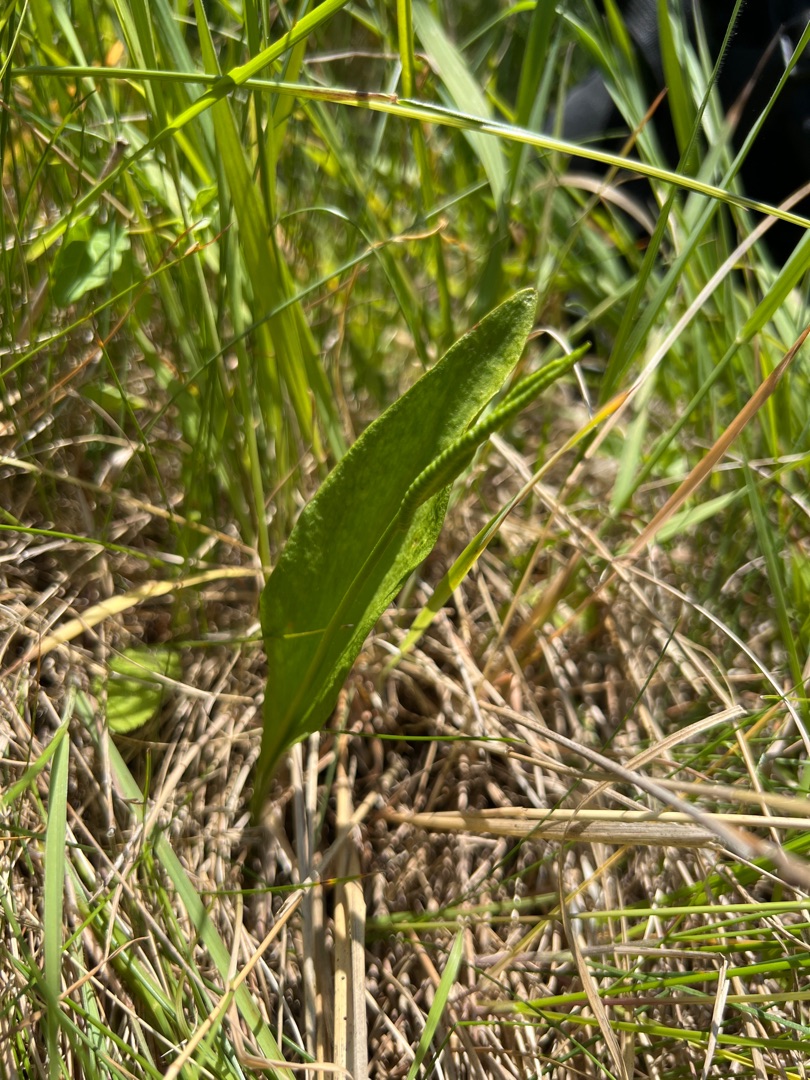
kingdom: Plantae
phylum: Tracheophyta
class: Polypodiopsida
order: Ophioglossales
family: Ophioglossaceae
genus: Ophioglossum
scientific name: Ophioglossum vulgatum
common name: Slangetunge
